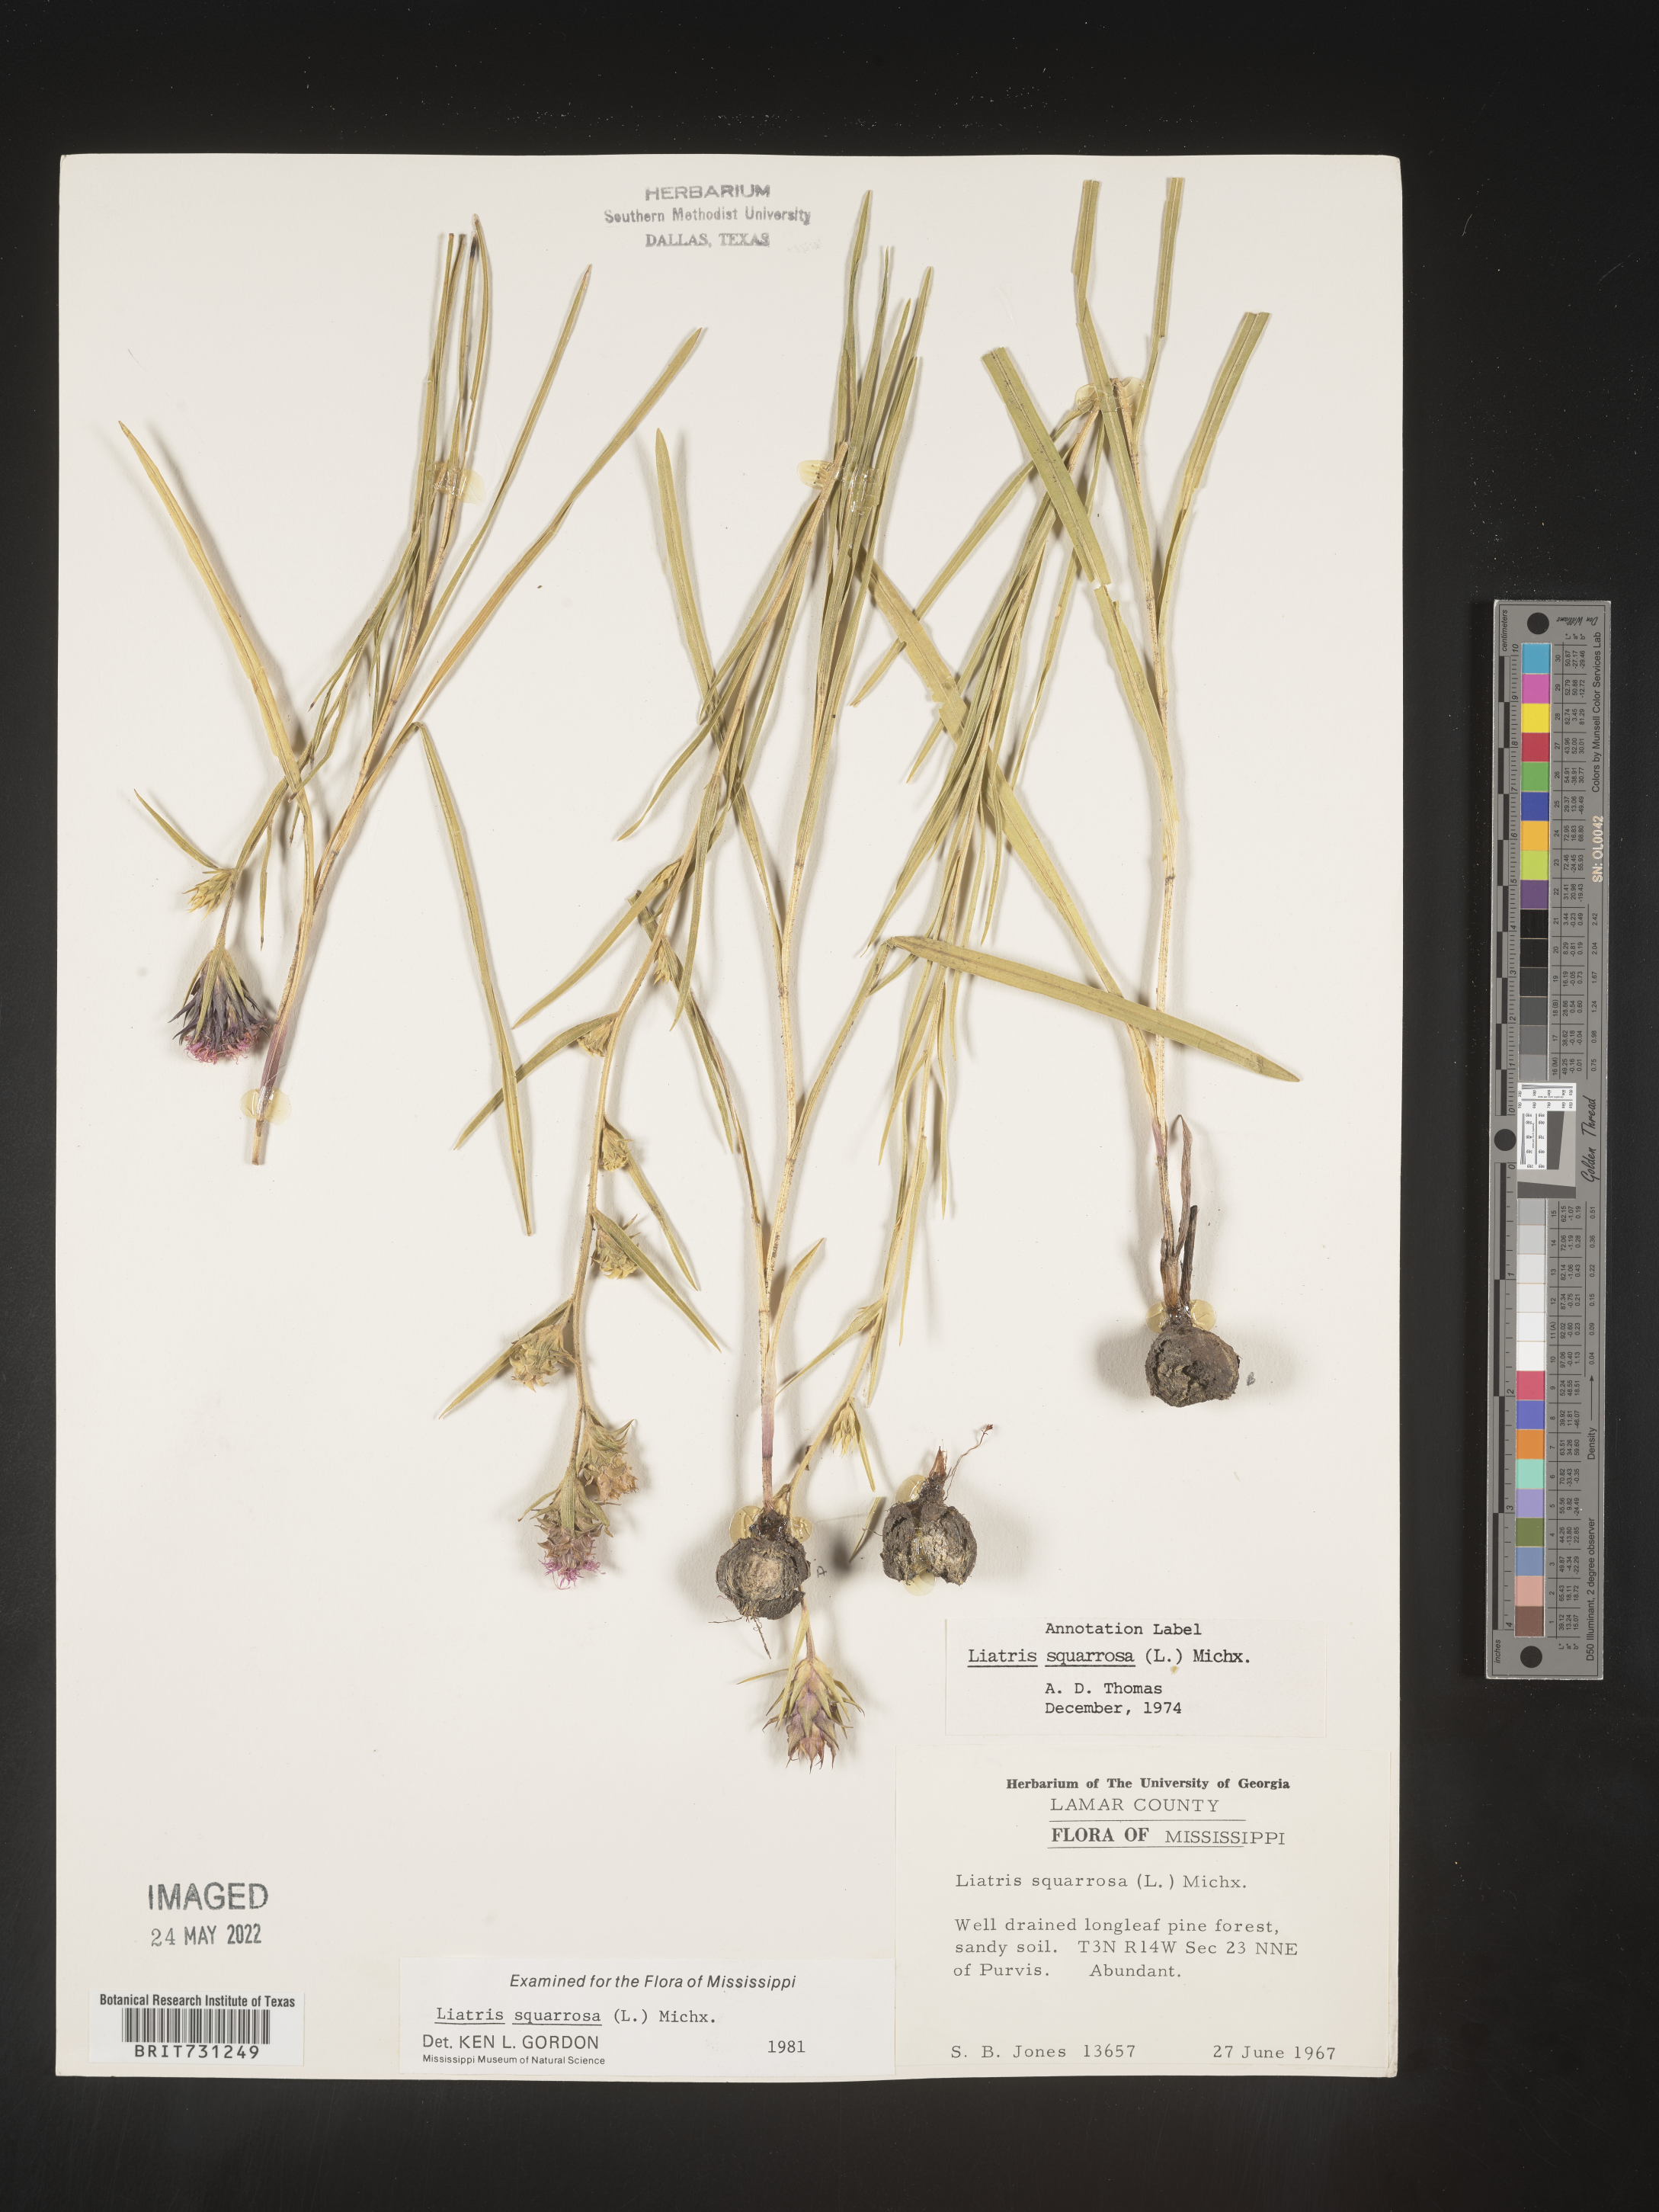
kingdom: Plantae
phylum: Tracheophyta
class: Magnoliopsida
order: Asterales
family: Asteraceae
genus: Liatris
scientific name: Liatris squarrosa
